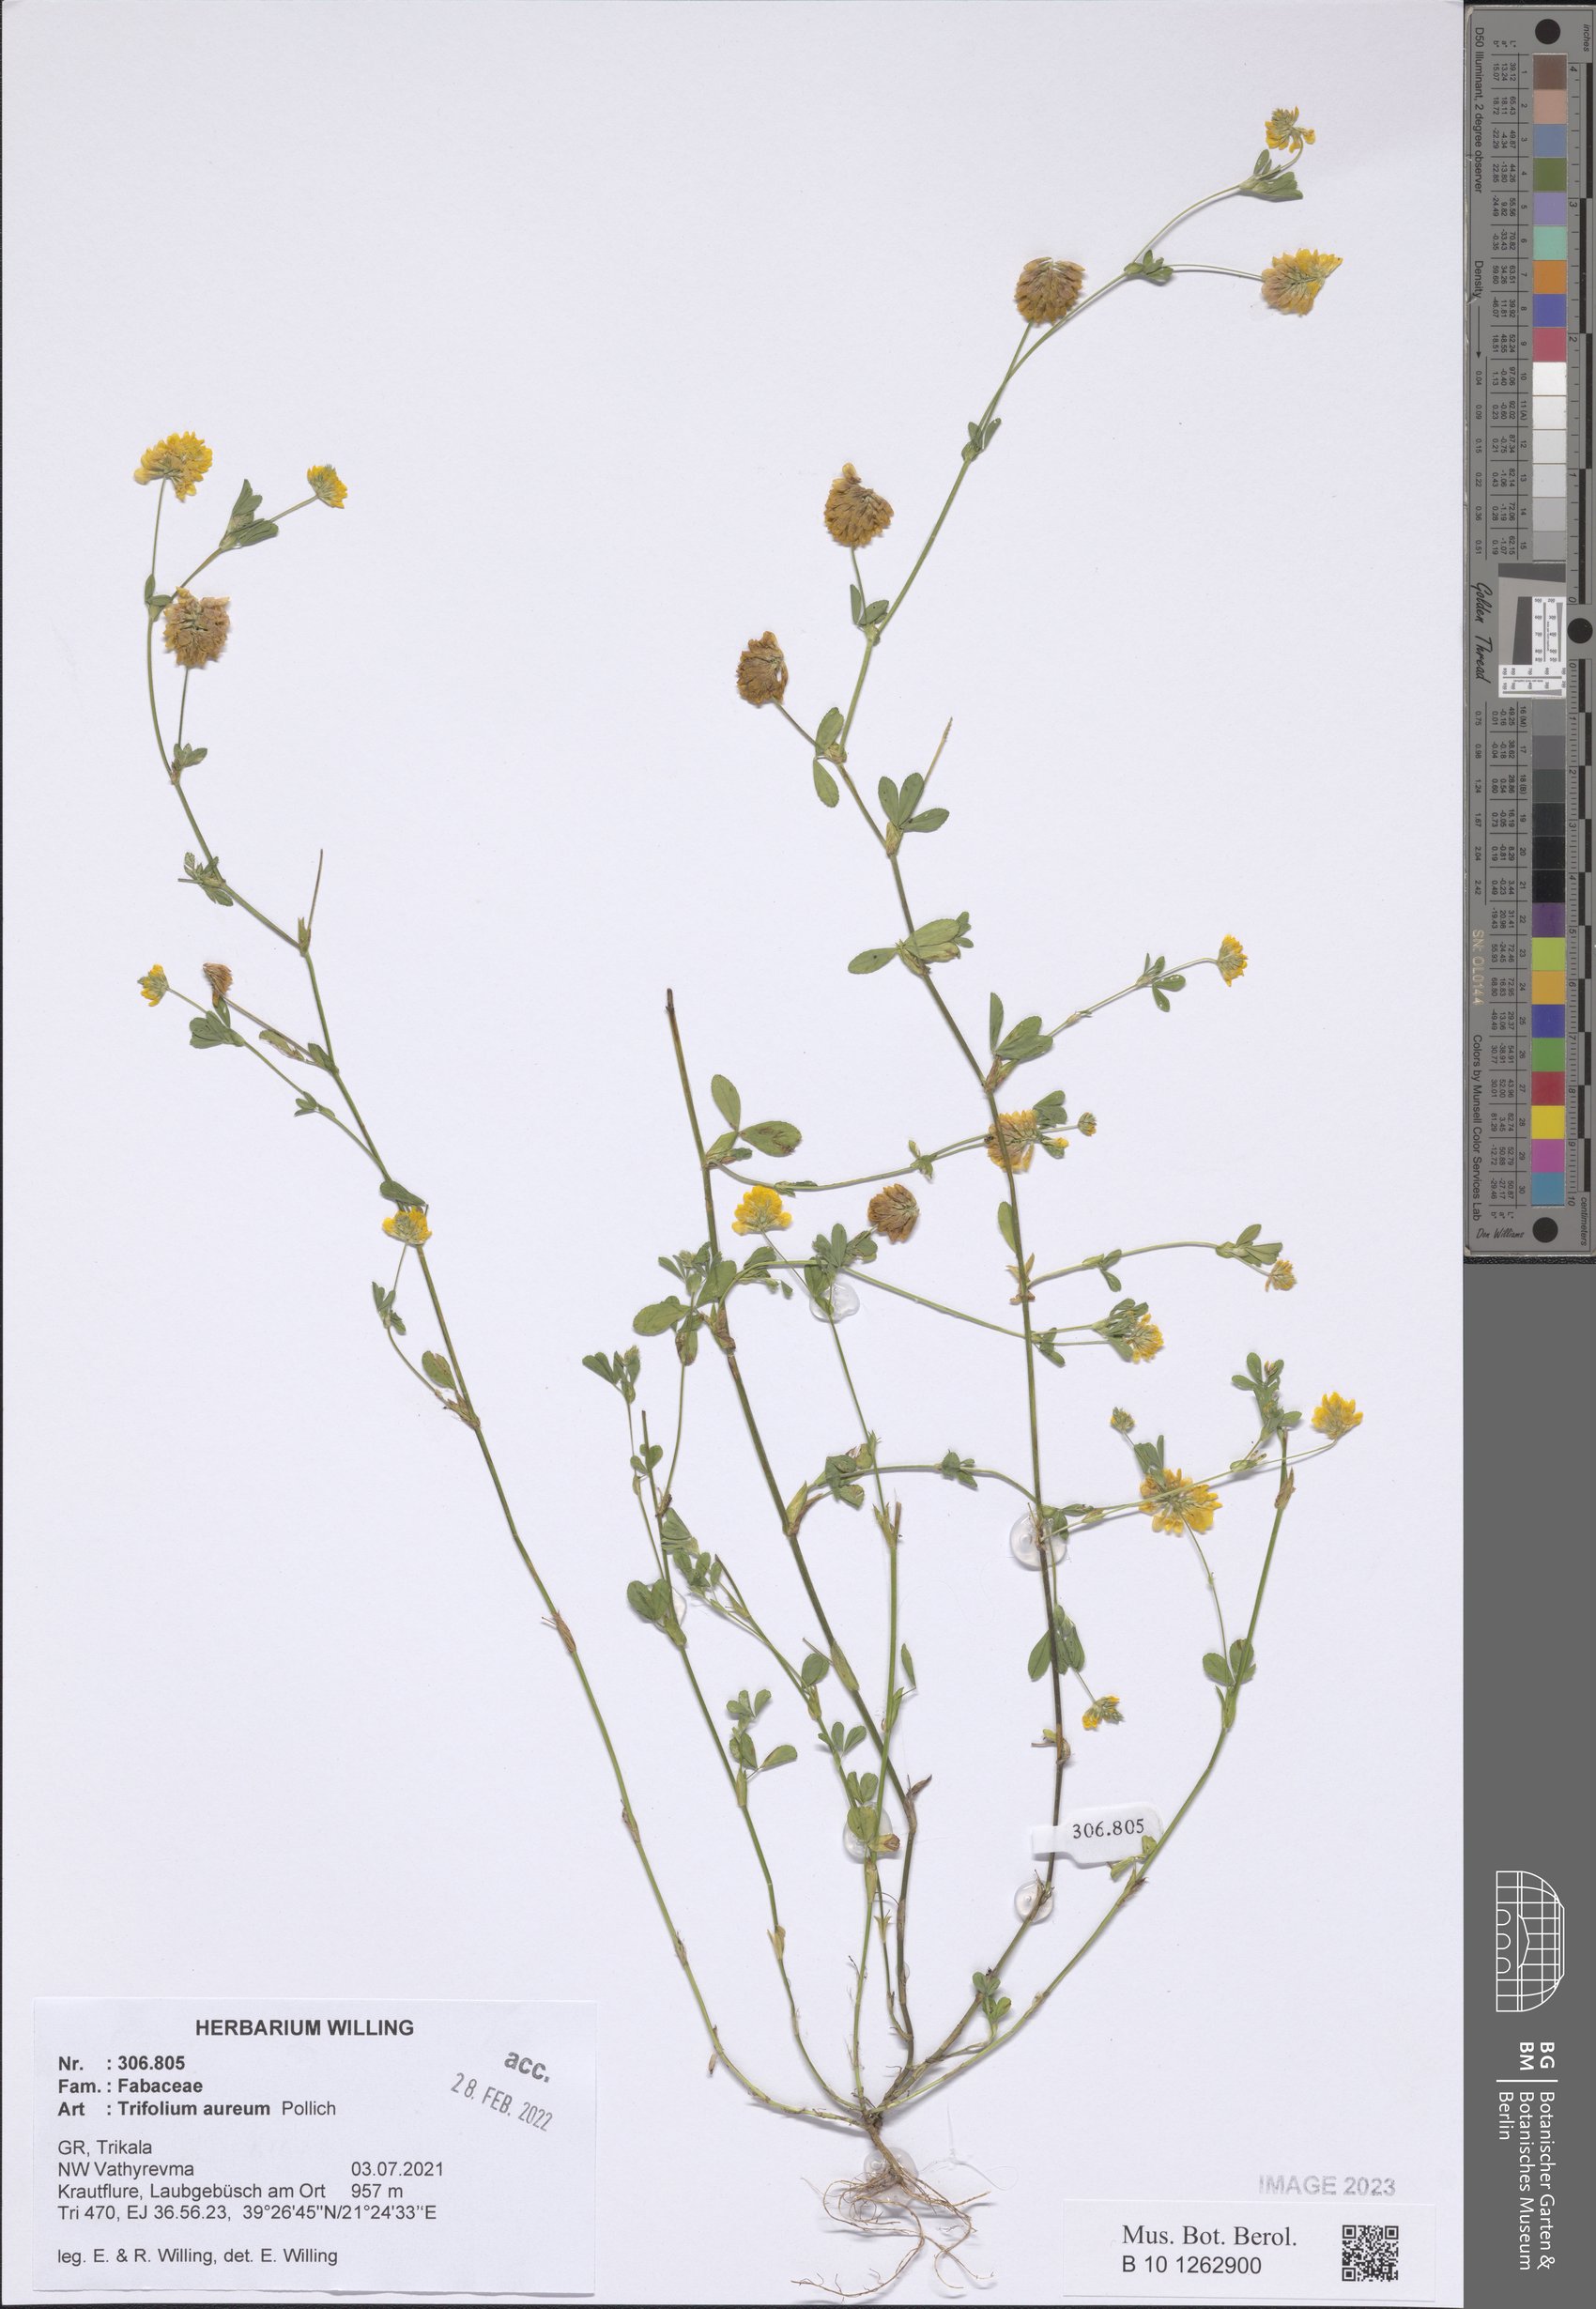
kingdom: Plantae
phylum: Tracheophyta
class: Magnoliopsida
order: Fabales
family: Fabaceae
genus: Trifolium
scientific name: Trifolium aureum
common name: Golden clover
